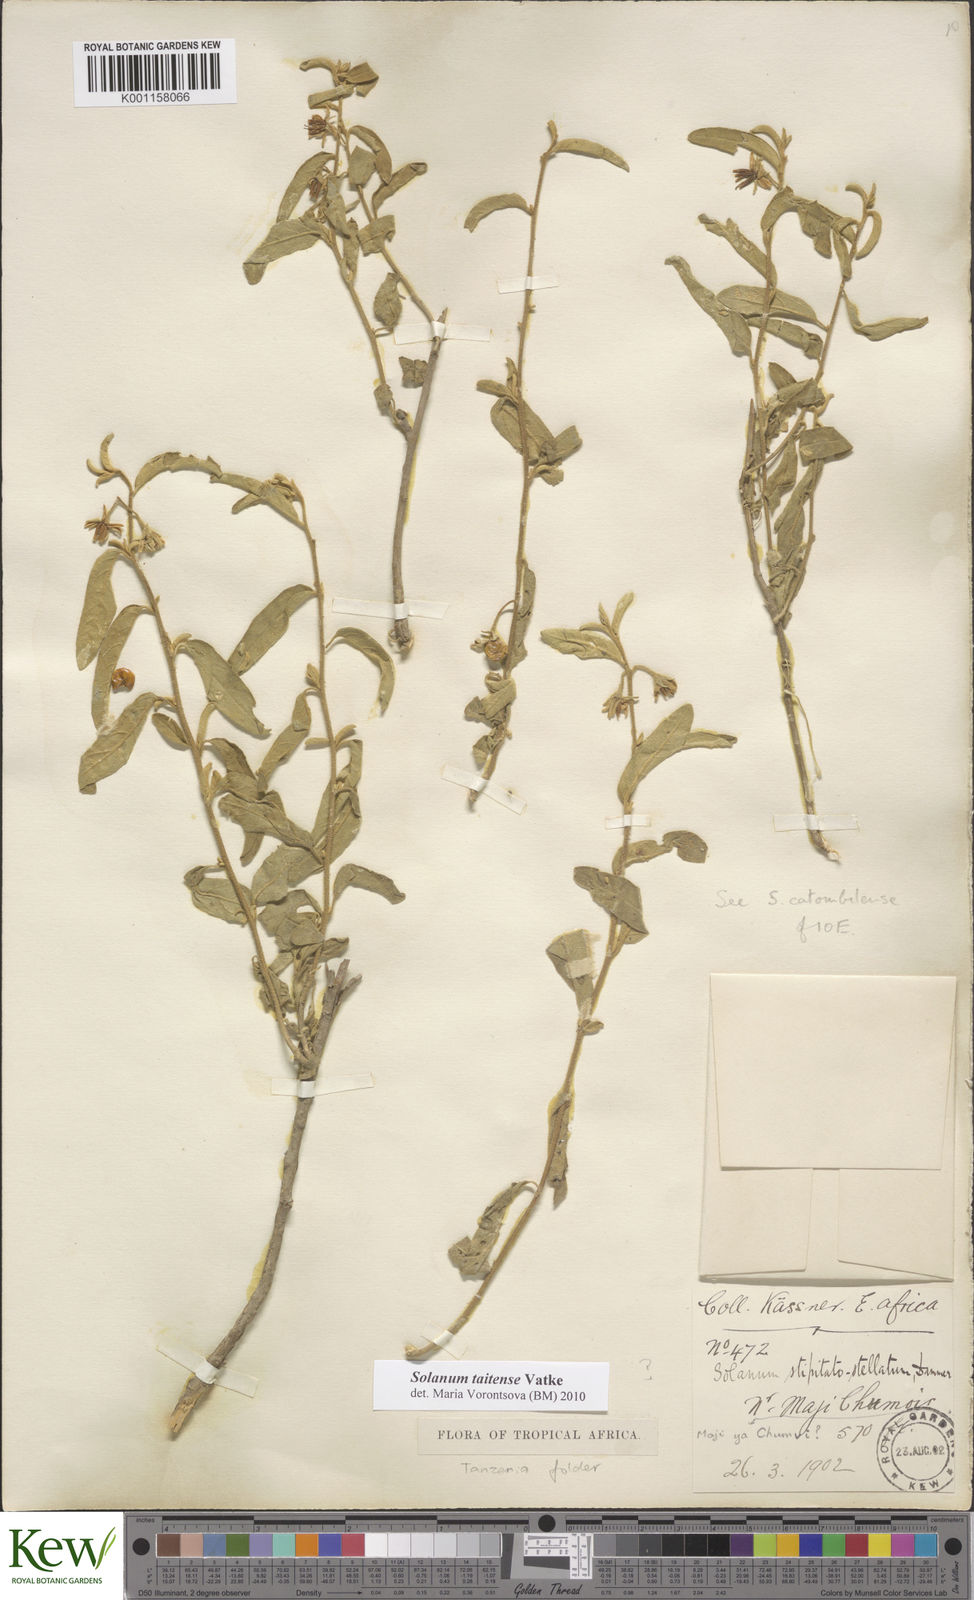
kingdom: Plantae
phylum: Tracheophyta
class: Magnoliopsida
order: Solanales
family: Solanaceae
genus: Solanum
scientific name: Solanum taitense
